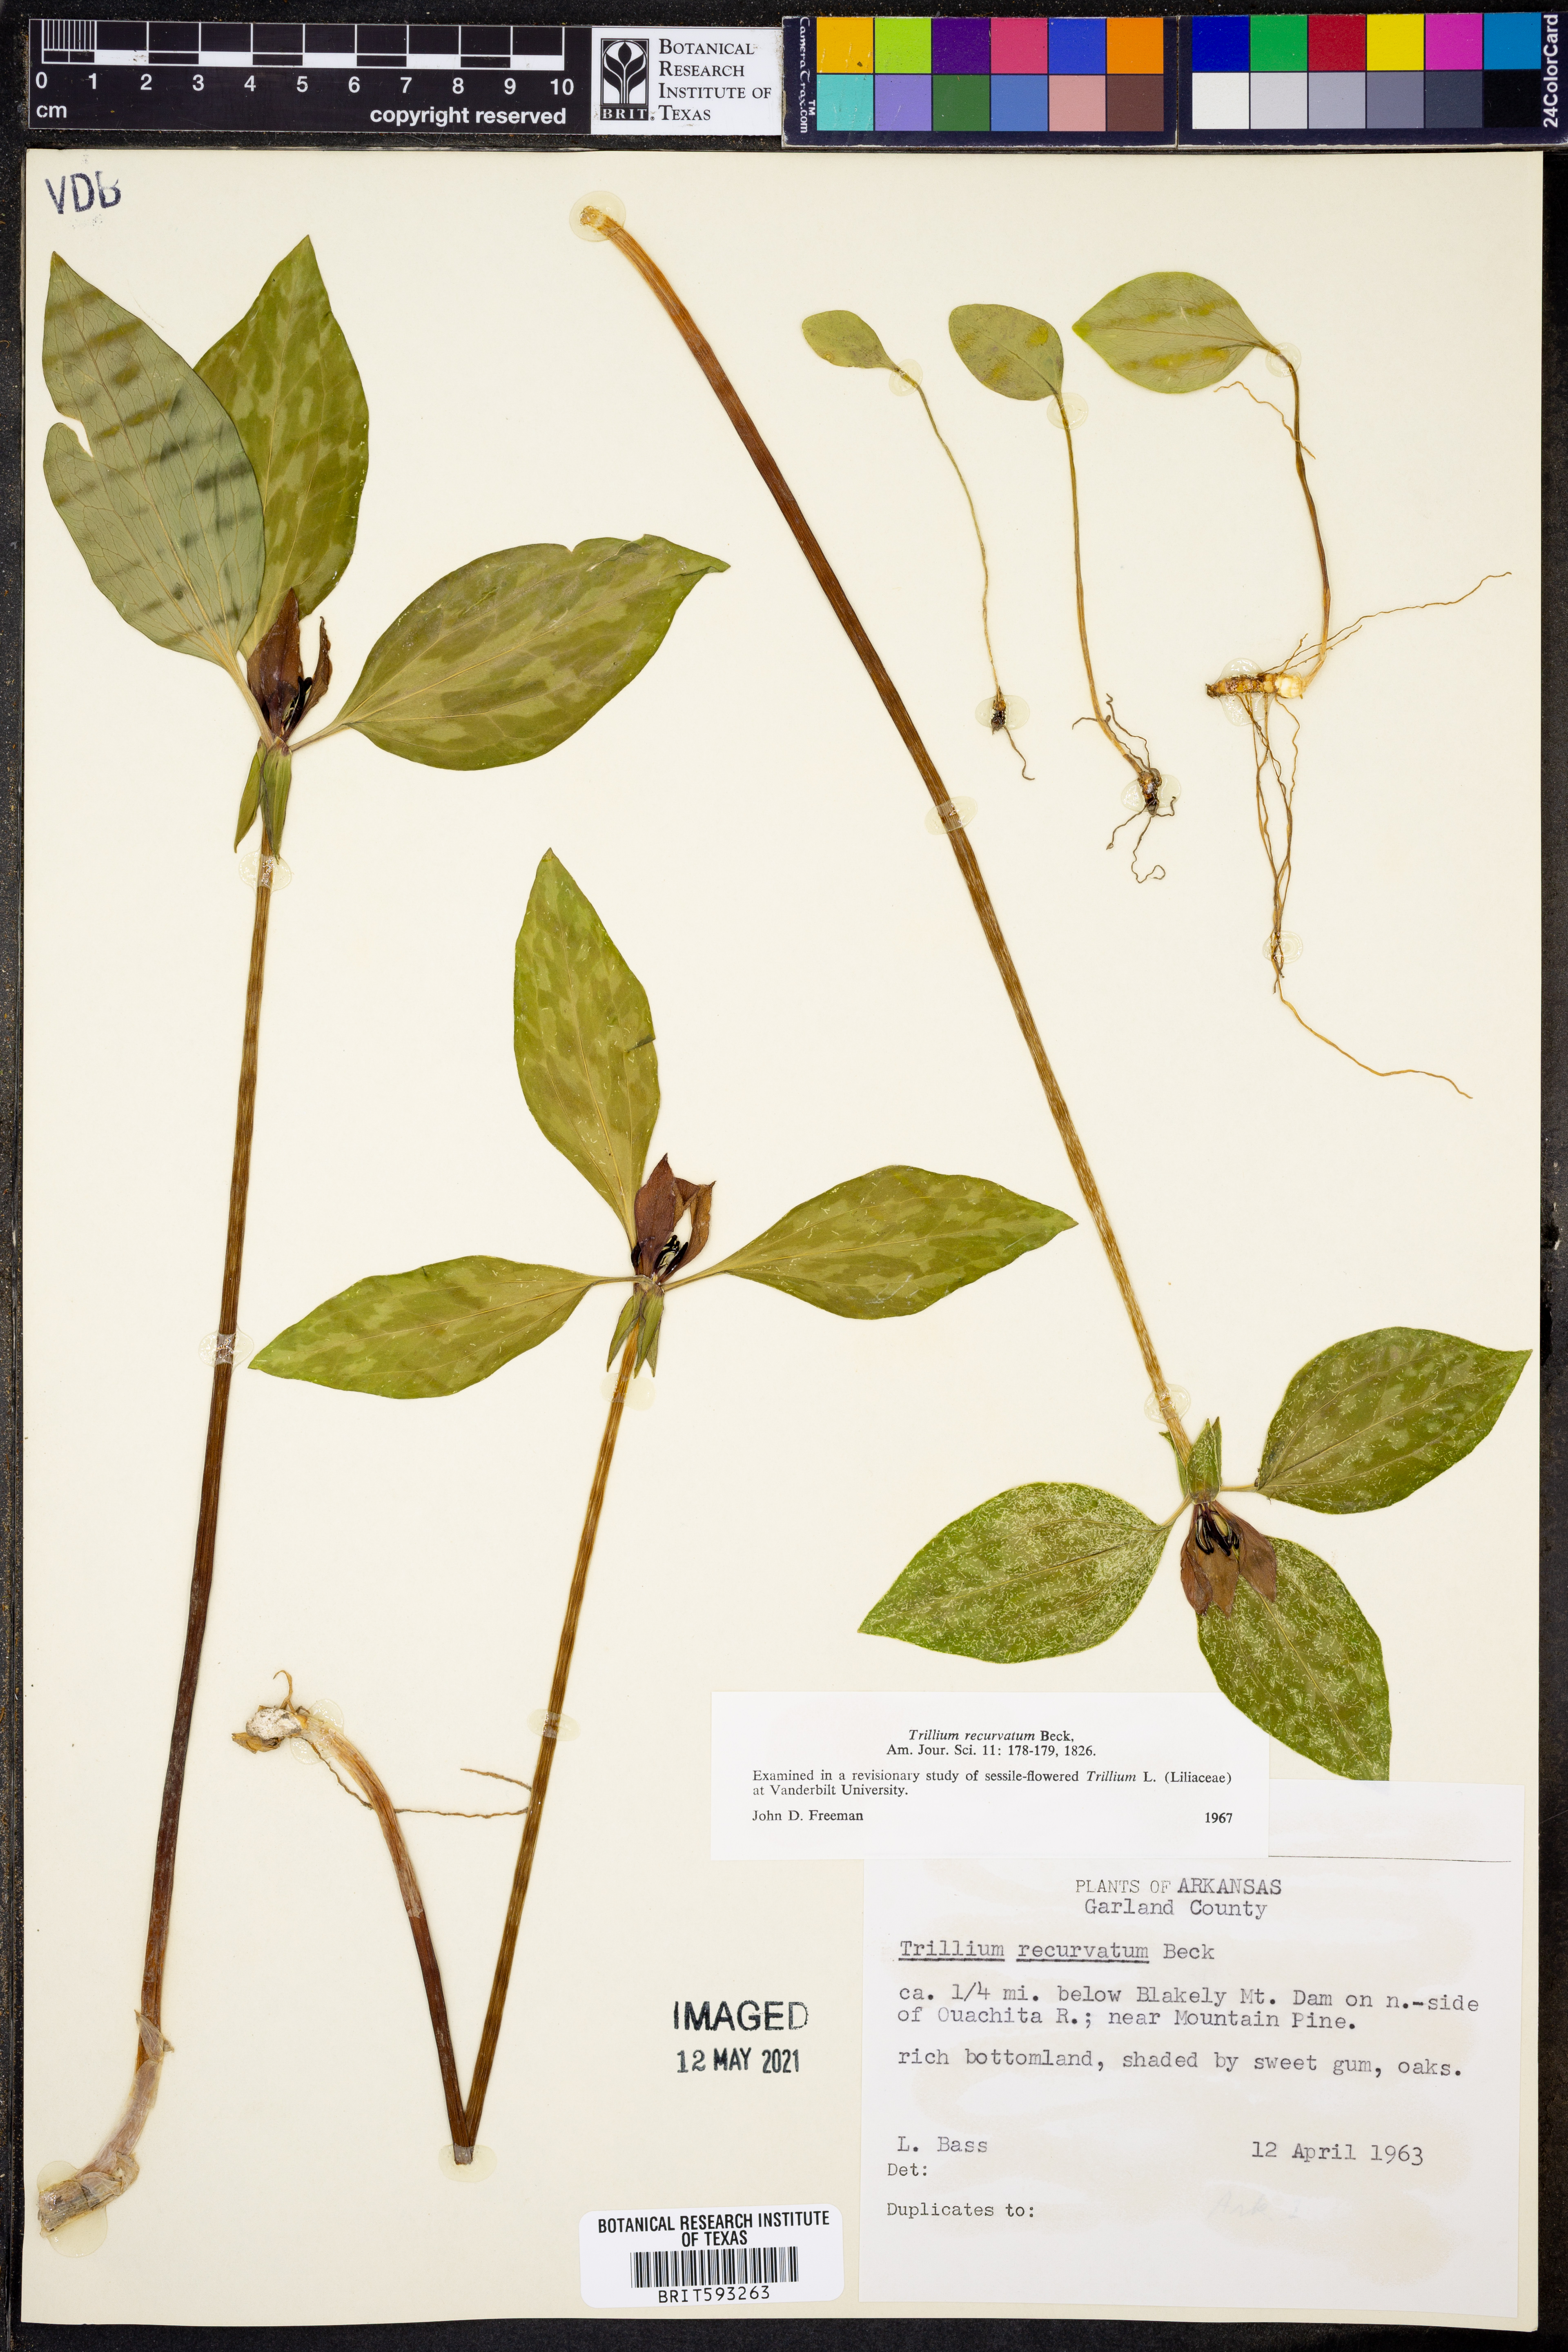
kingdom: Plantae
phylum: Tracheophyta
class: Liliopsida
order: Liliales
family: Melanthiaceae
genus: Trillium
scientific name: Trillium recurvatum
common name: Bloody butcher
